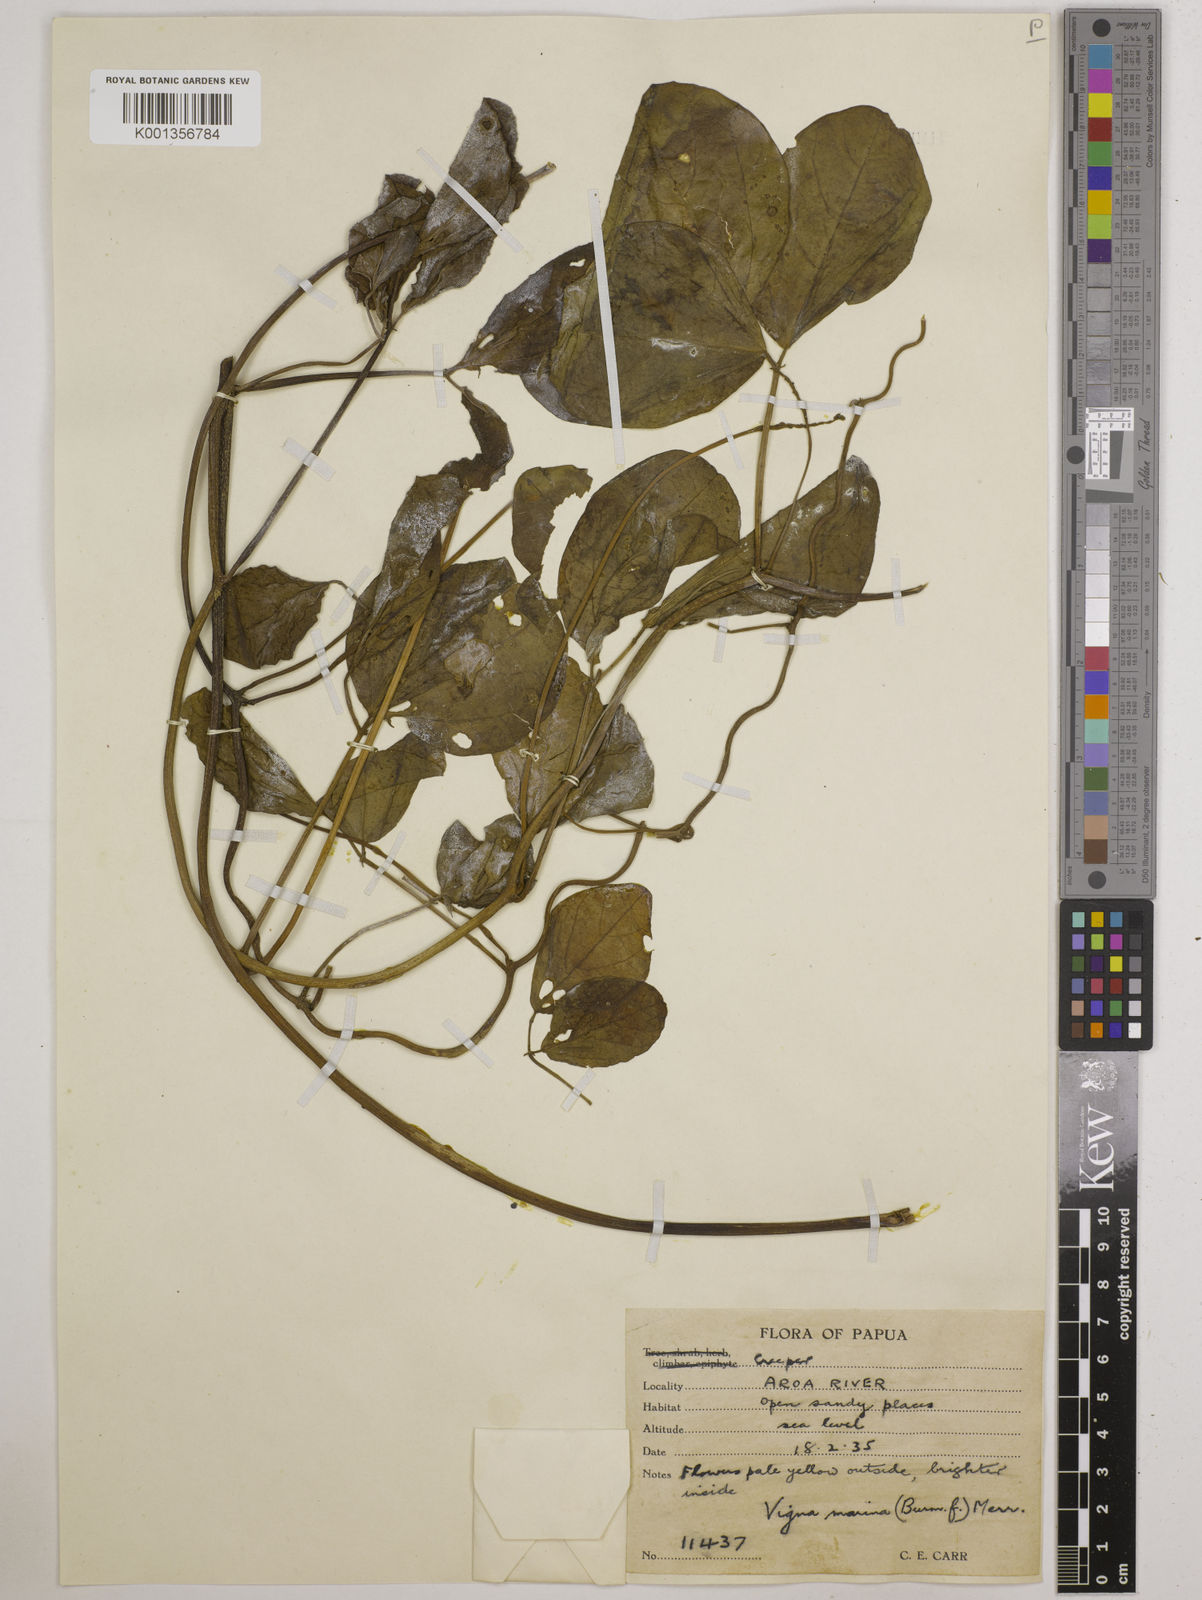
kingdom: Plantae
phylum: Tracheophyta
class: Magnoliopsida
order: Fabales
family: Fabaceae
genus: Vigna
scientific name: Vigna marina
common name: Dune-bean
